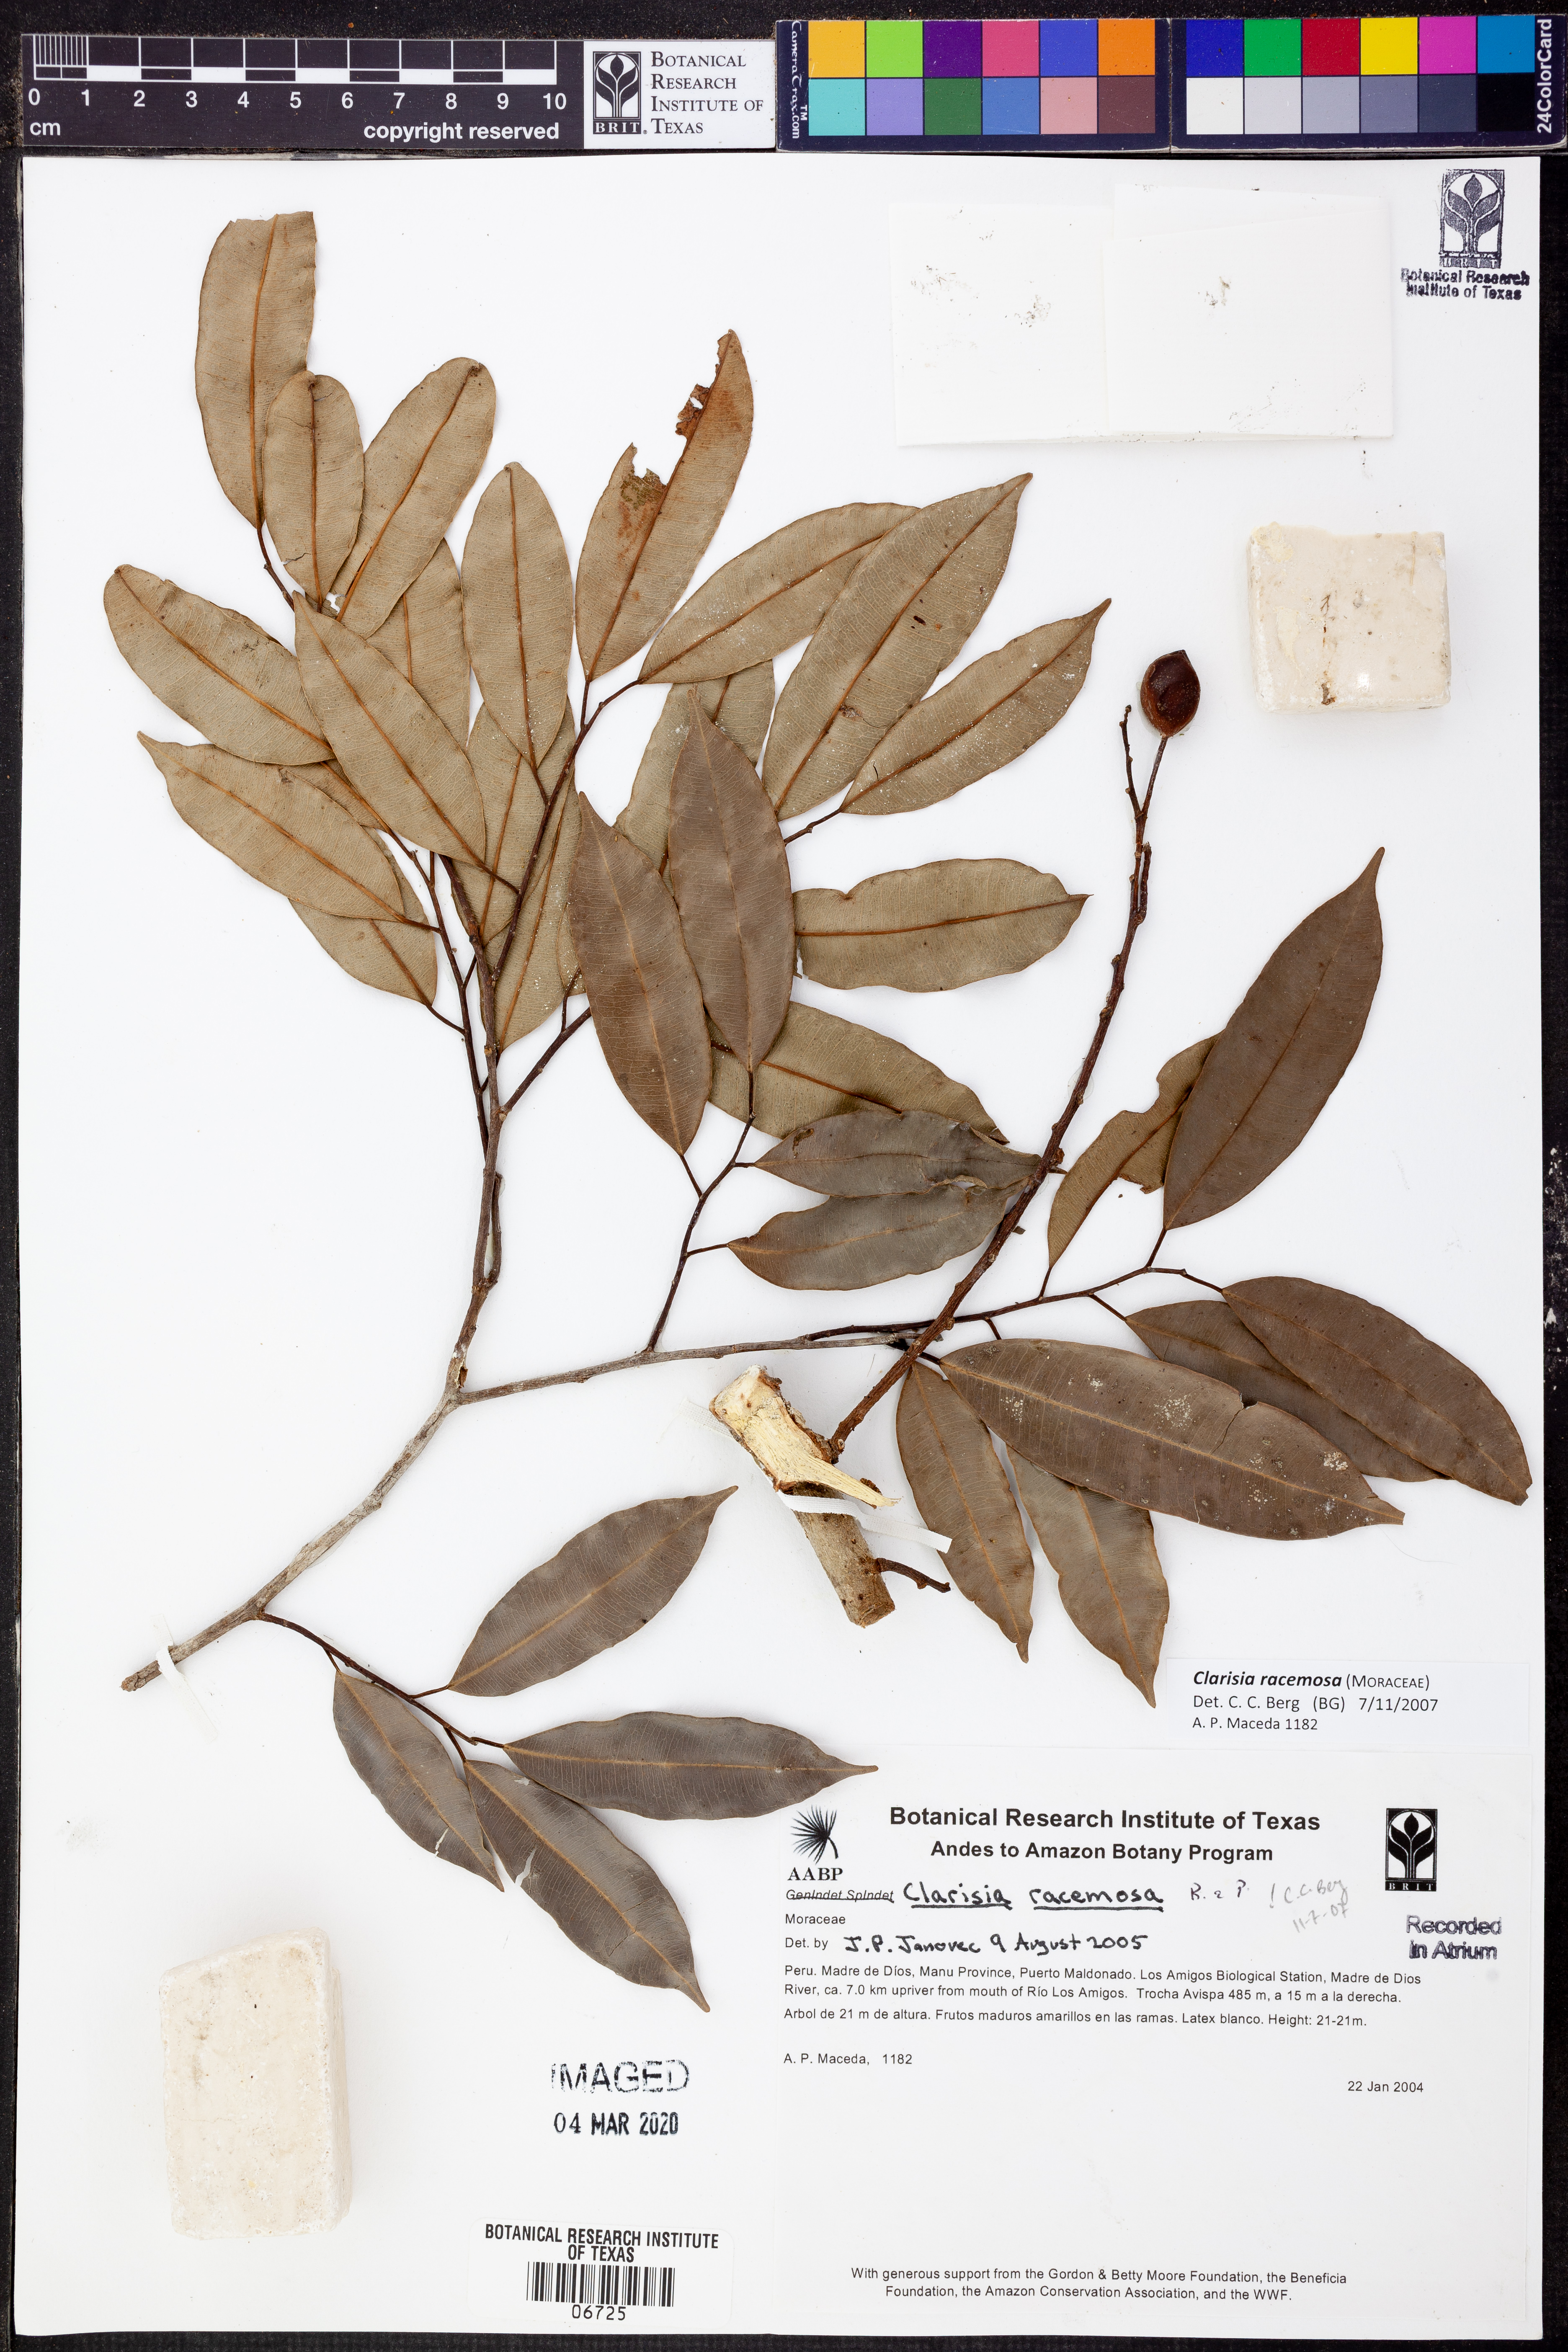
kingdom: Plantae
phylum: Tracheophyta
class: Magnoliopsida
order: Rosales
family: Moraceae
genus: Clarisia
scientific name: Clarisia
